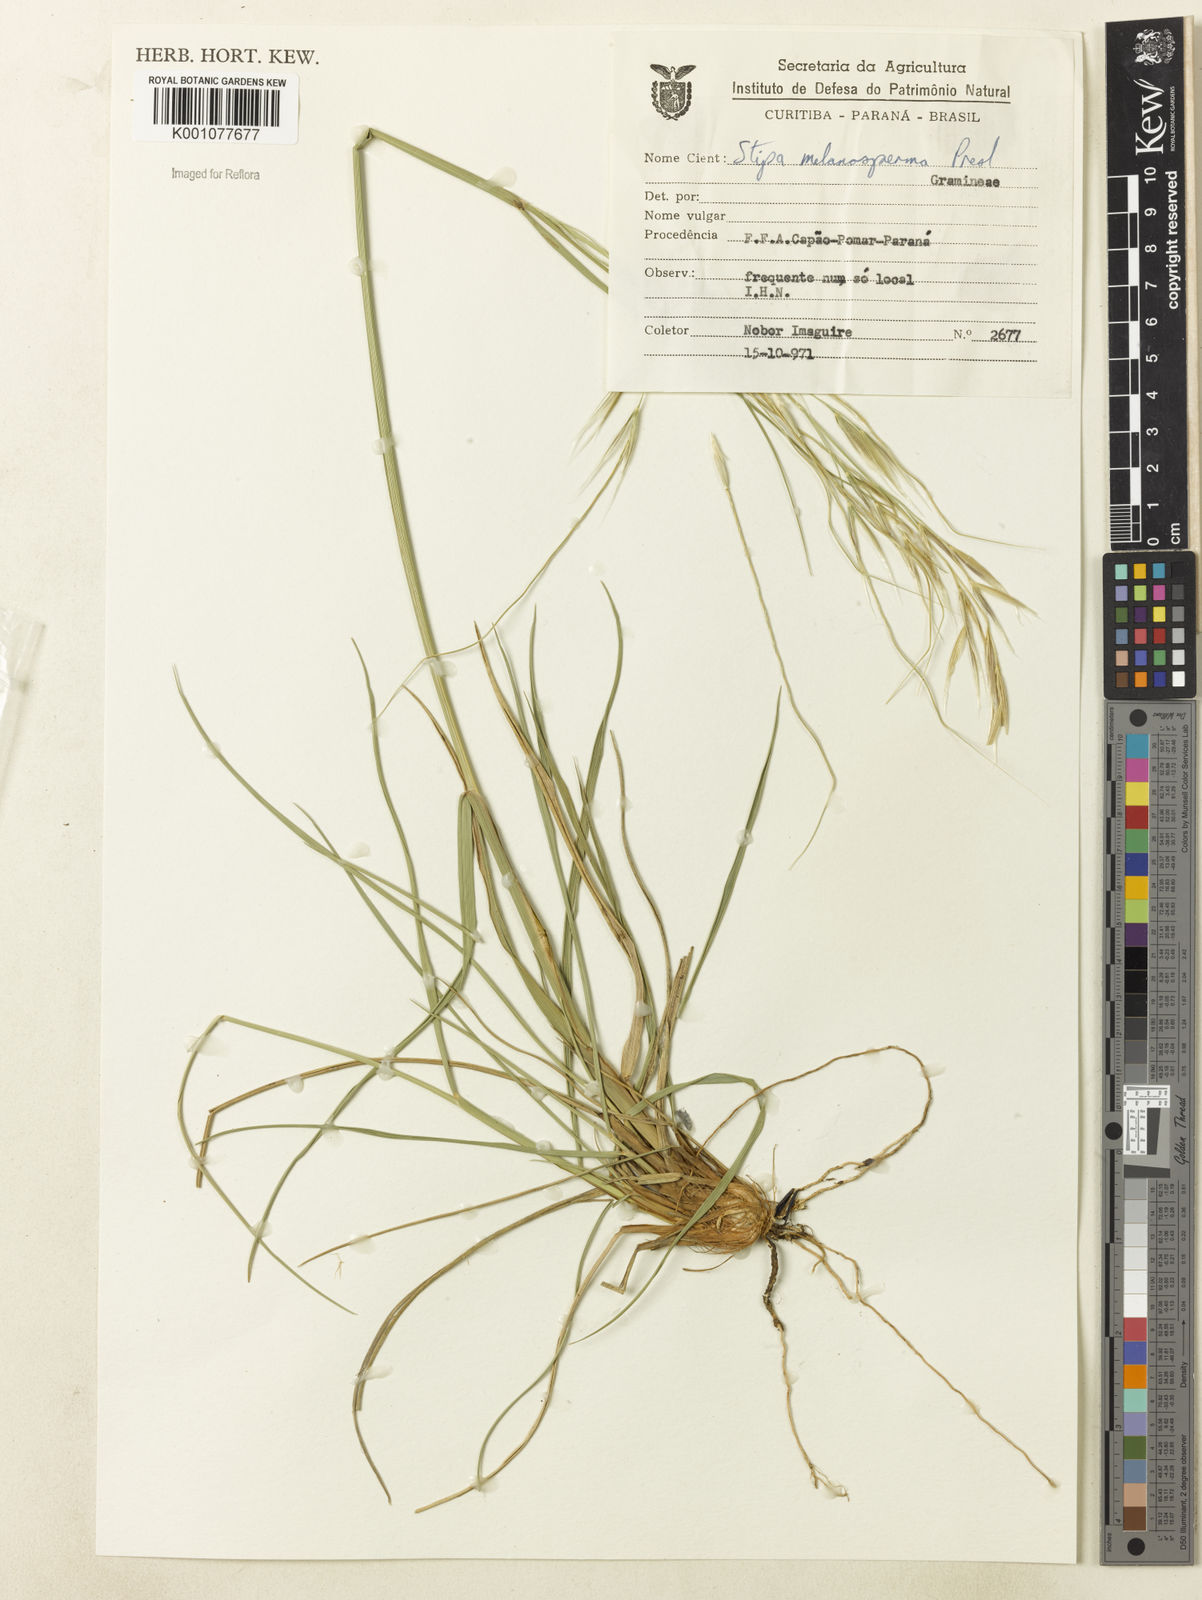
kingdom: Plantae
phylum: Tracheophyta
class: Liliopsida
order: Poales
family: Poaceae
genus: Nassella
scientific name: Nassella melanosperma
